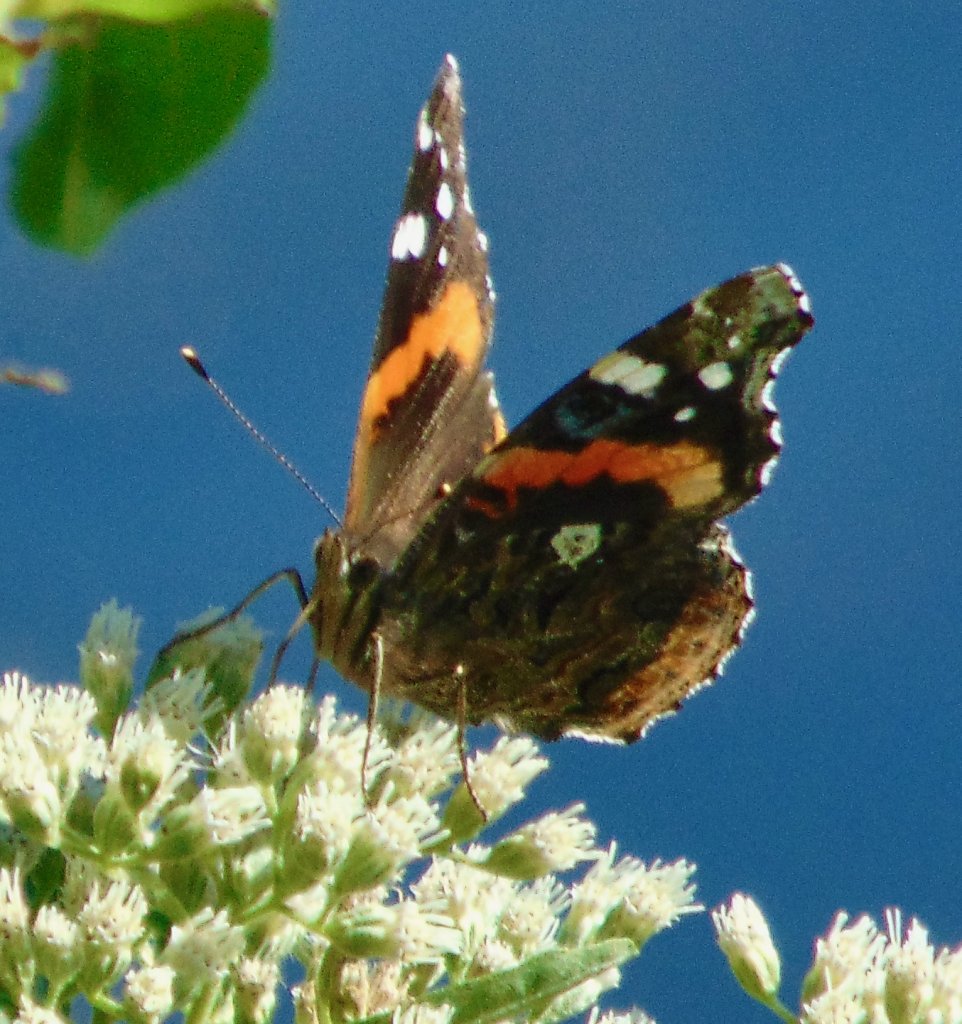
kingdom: Animalia
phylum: Arthropoda
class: Insecta
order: Lepidoptera
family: Nymphalidae
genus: Vanessa
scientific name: Vanessa atalanta
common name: Red Admiral
